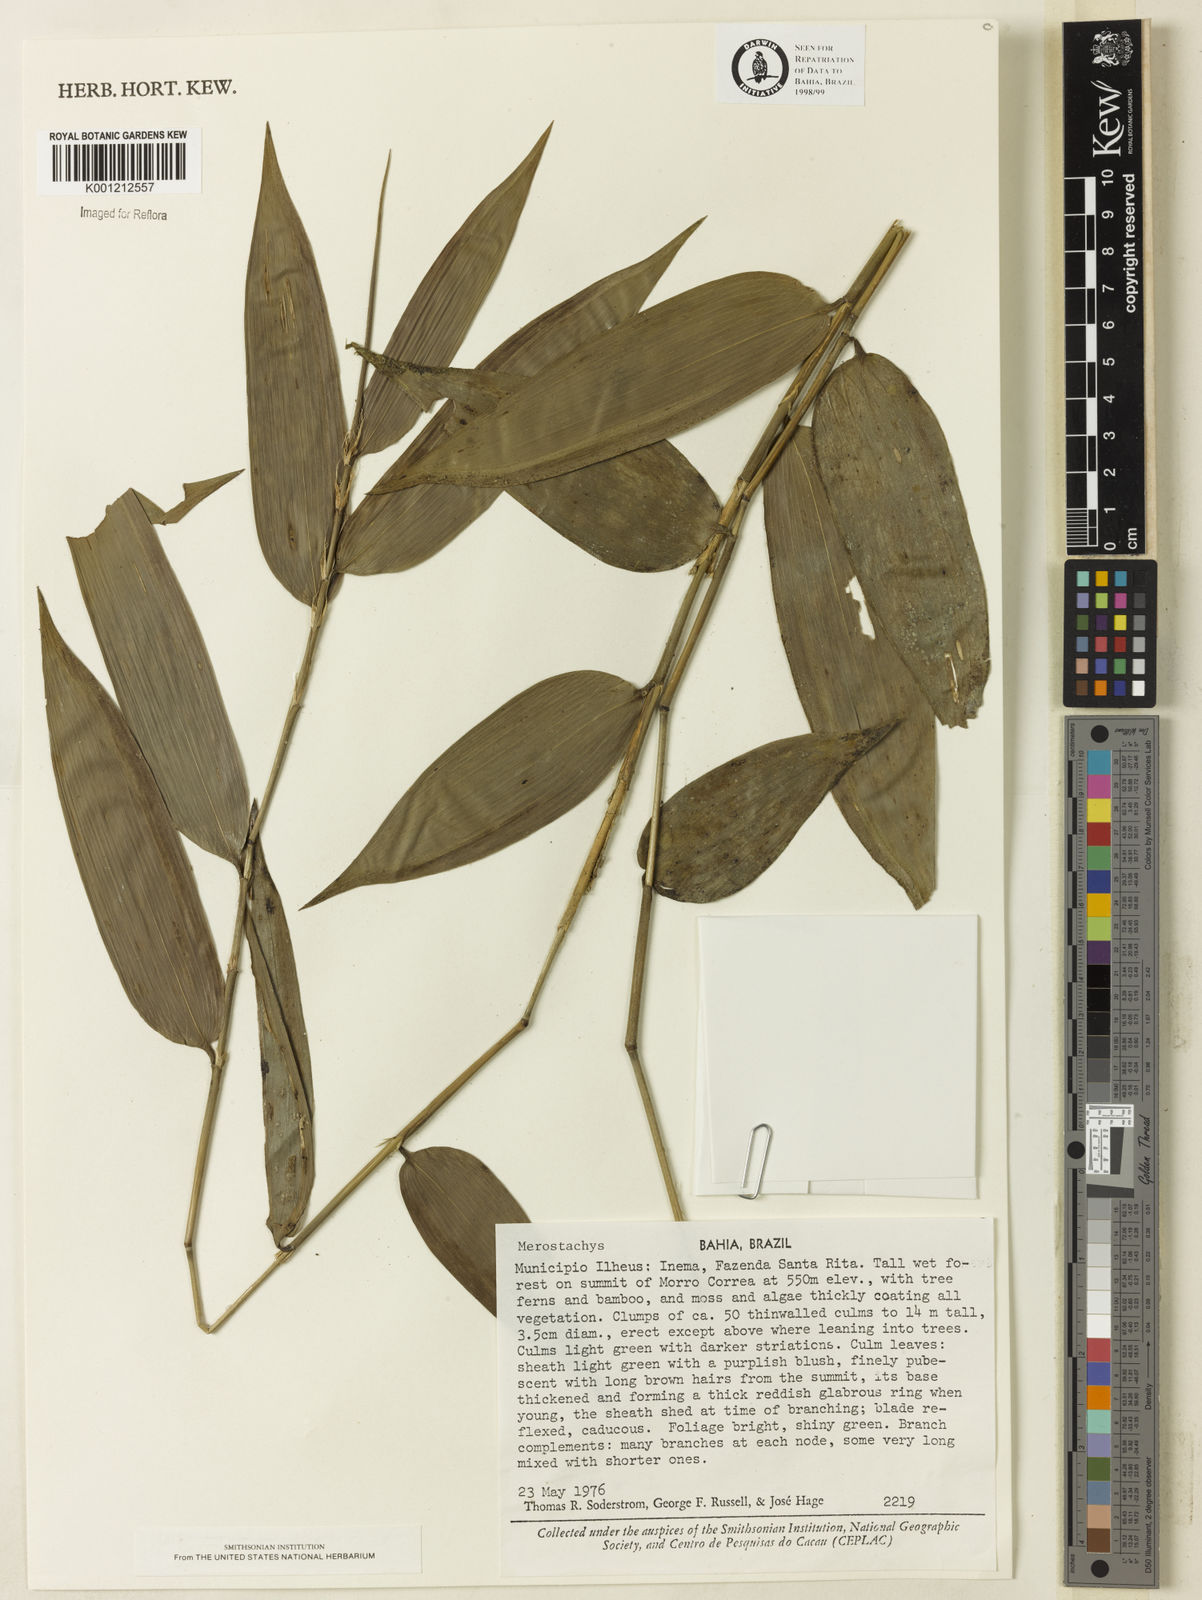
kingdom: Plantae
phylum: Tracheophyta
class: Liliopsida
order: Poales
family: Poaceae
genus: Merostachys
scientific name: Merostachys
